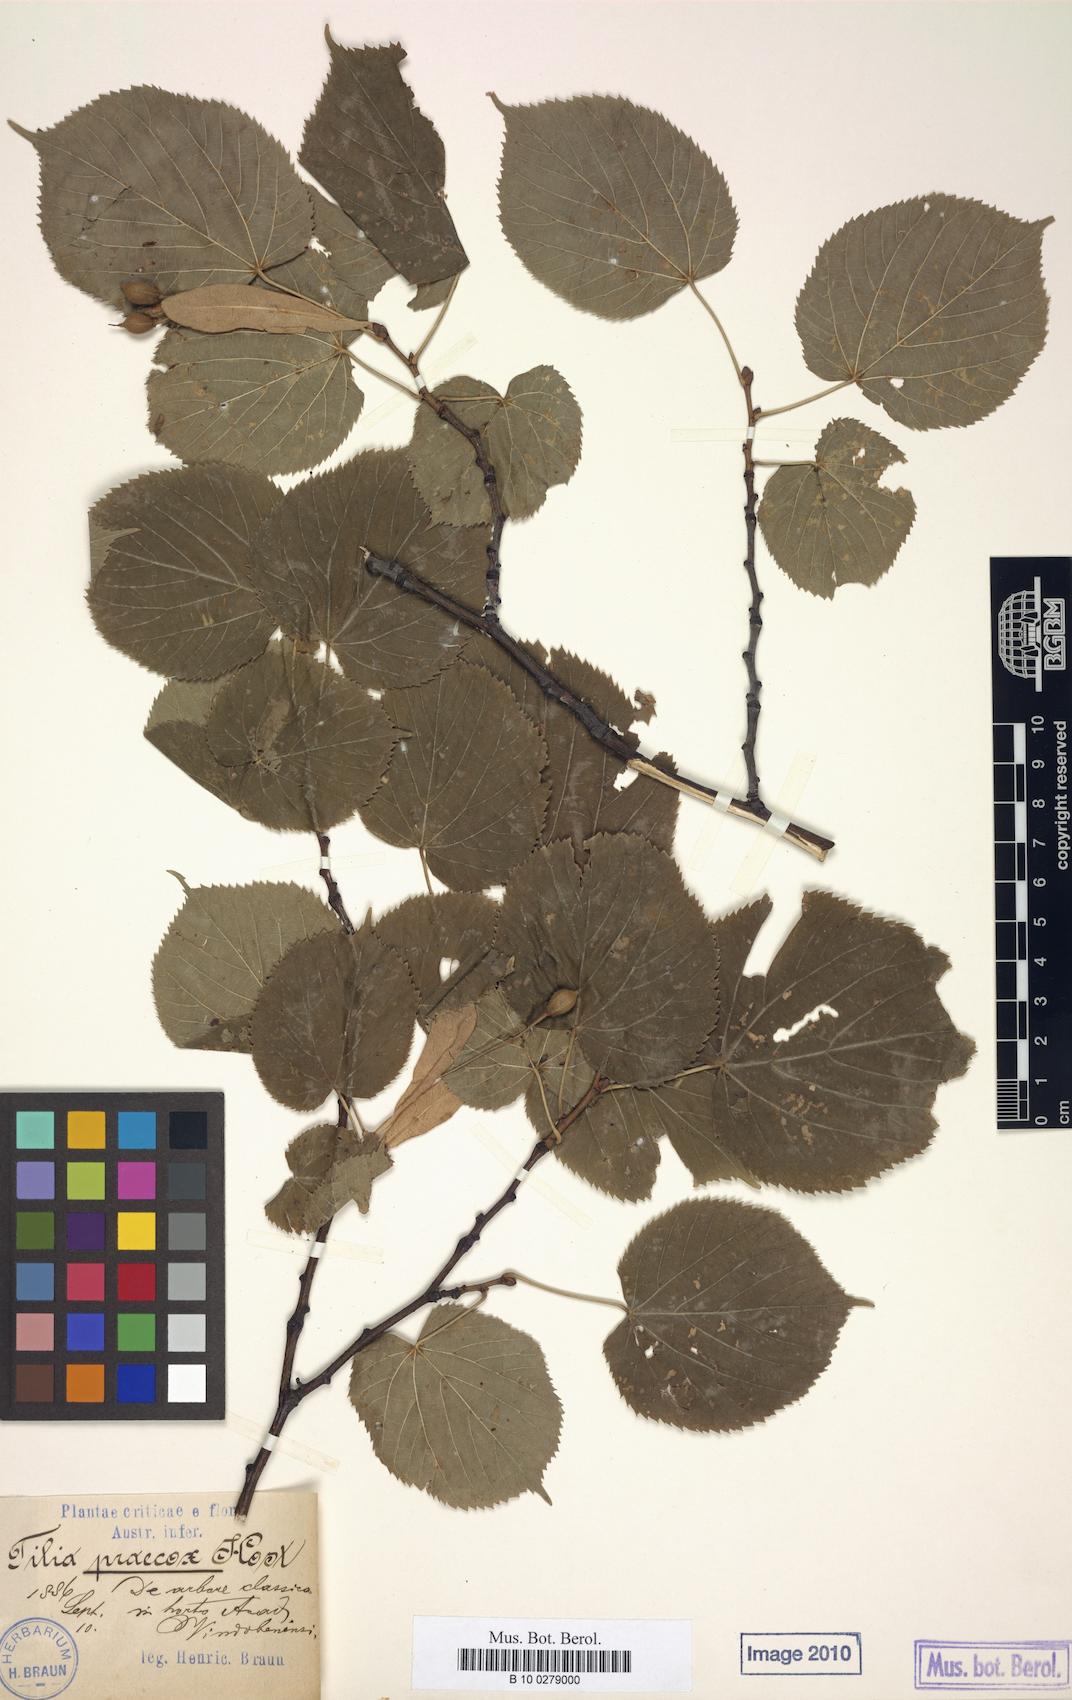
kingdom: Plantae
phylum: Tracheophyta
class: Magnoliopsida
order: Malvales
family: Malvaceae
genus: Tilia
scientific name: Tilia flaccida
